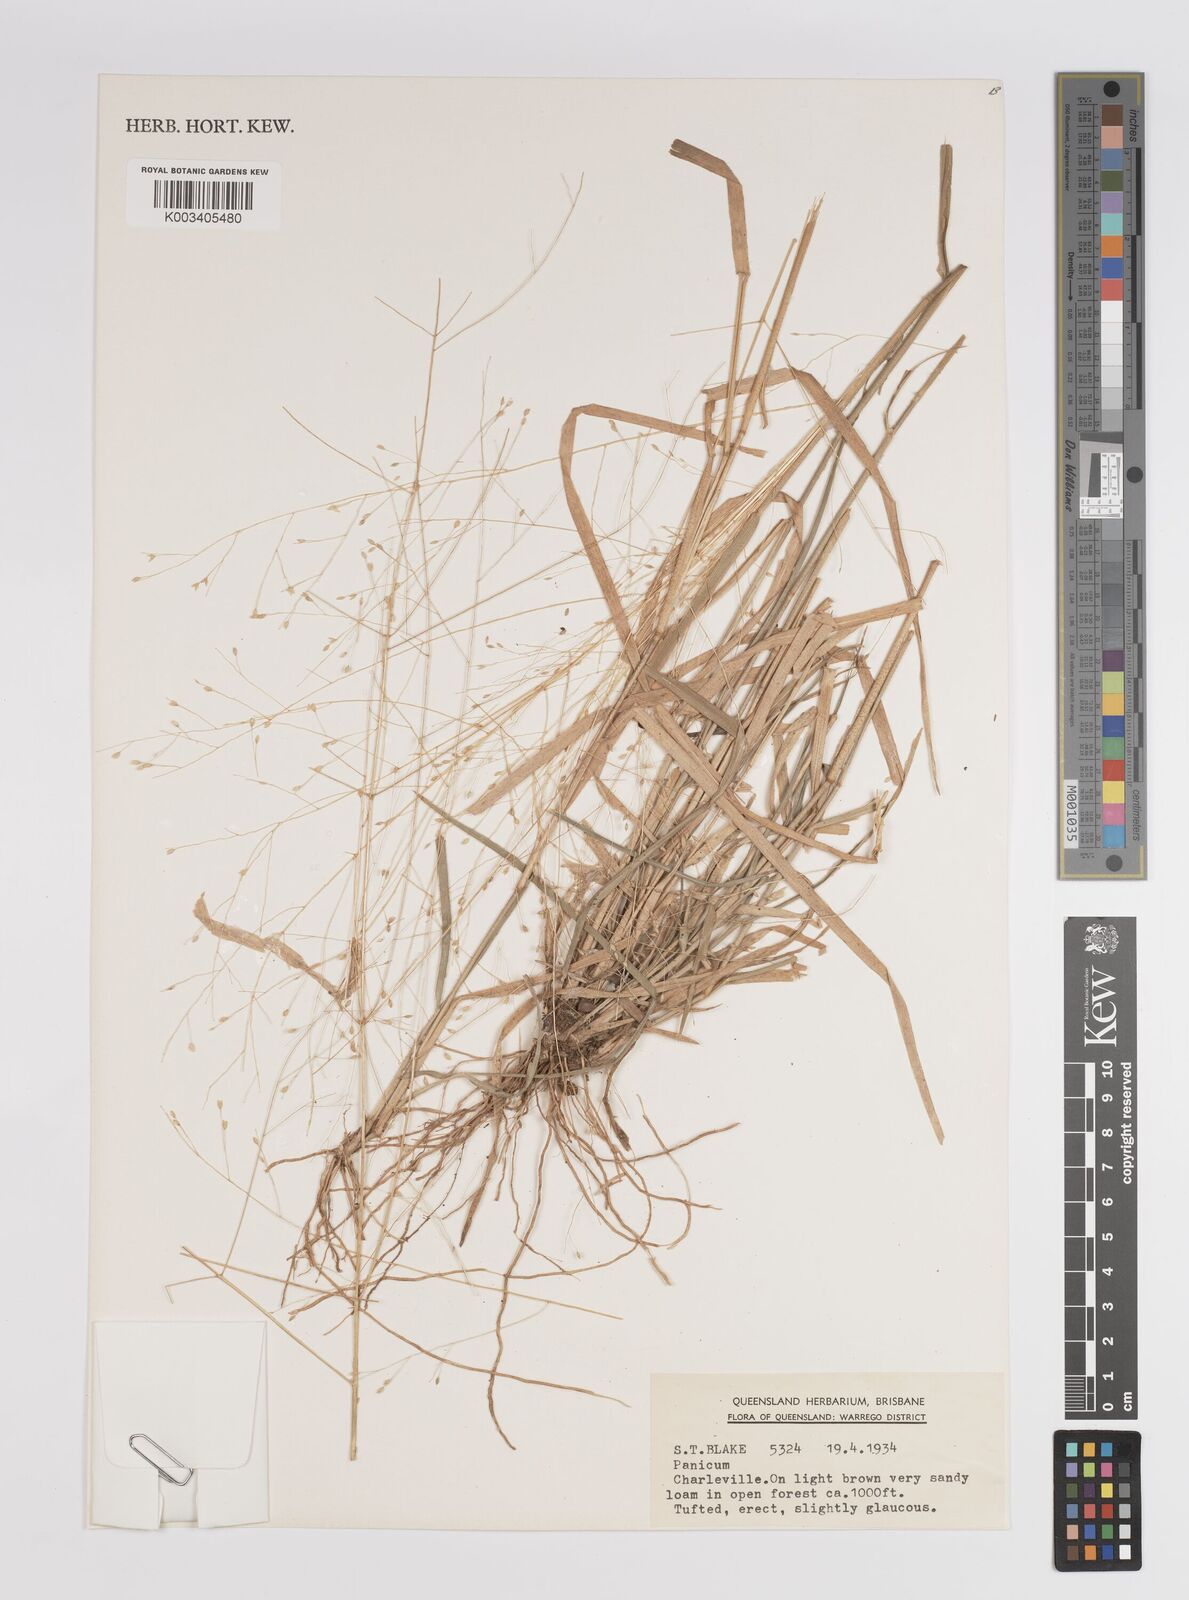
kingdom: Plantae
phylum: Tracheophyta
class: Liliopsida
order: Poales
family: Poaceae
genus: Panicum
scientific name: Panicum
